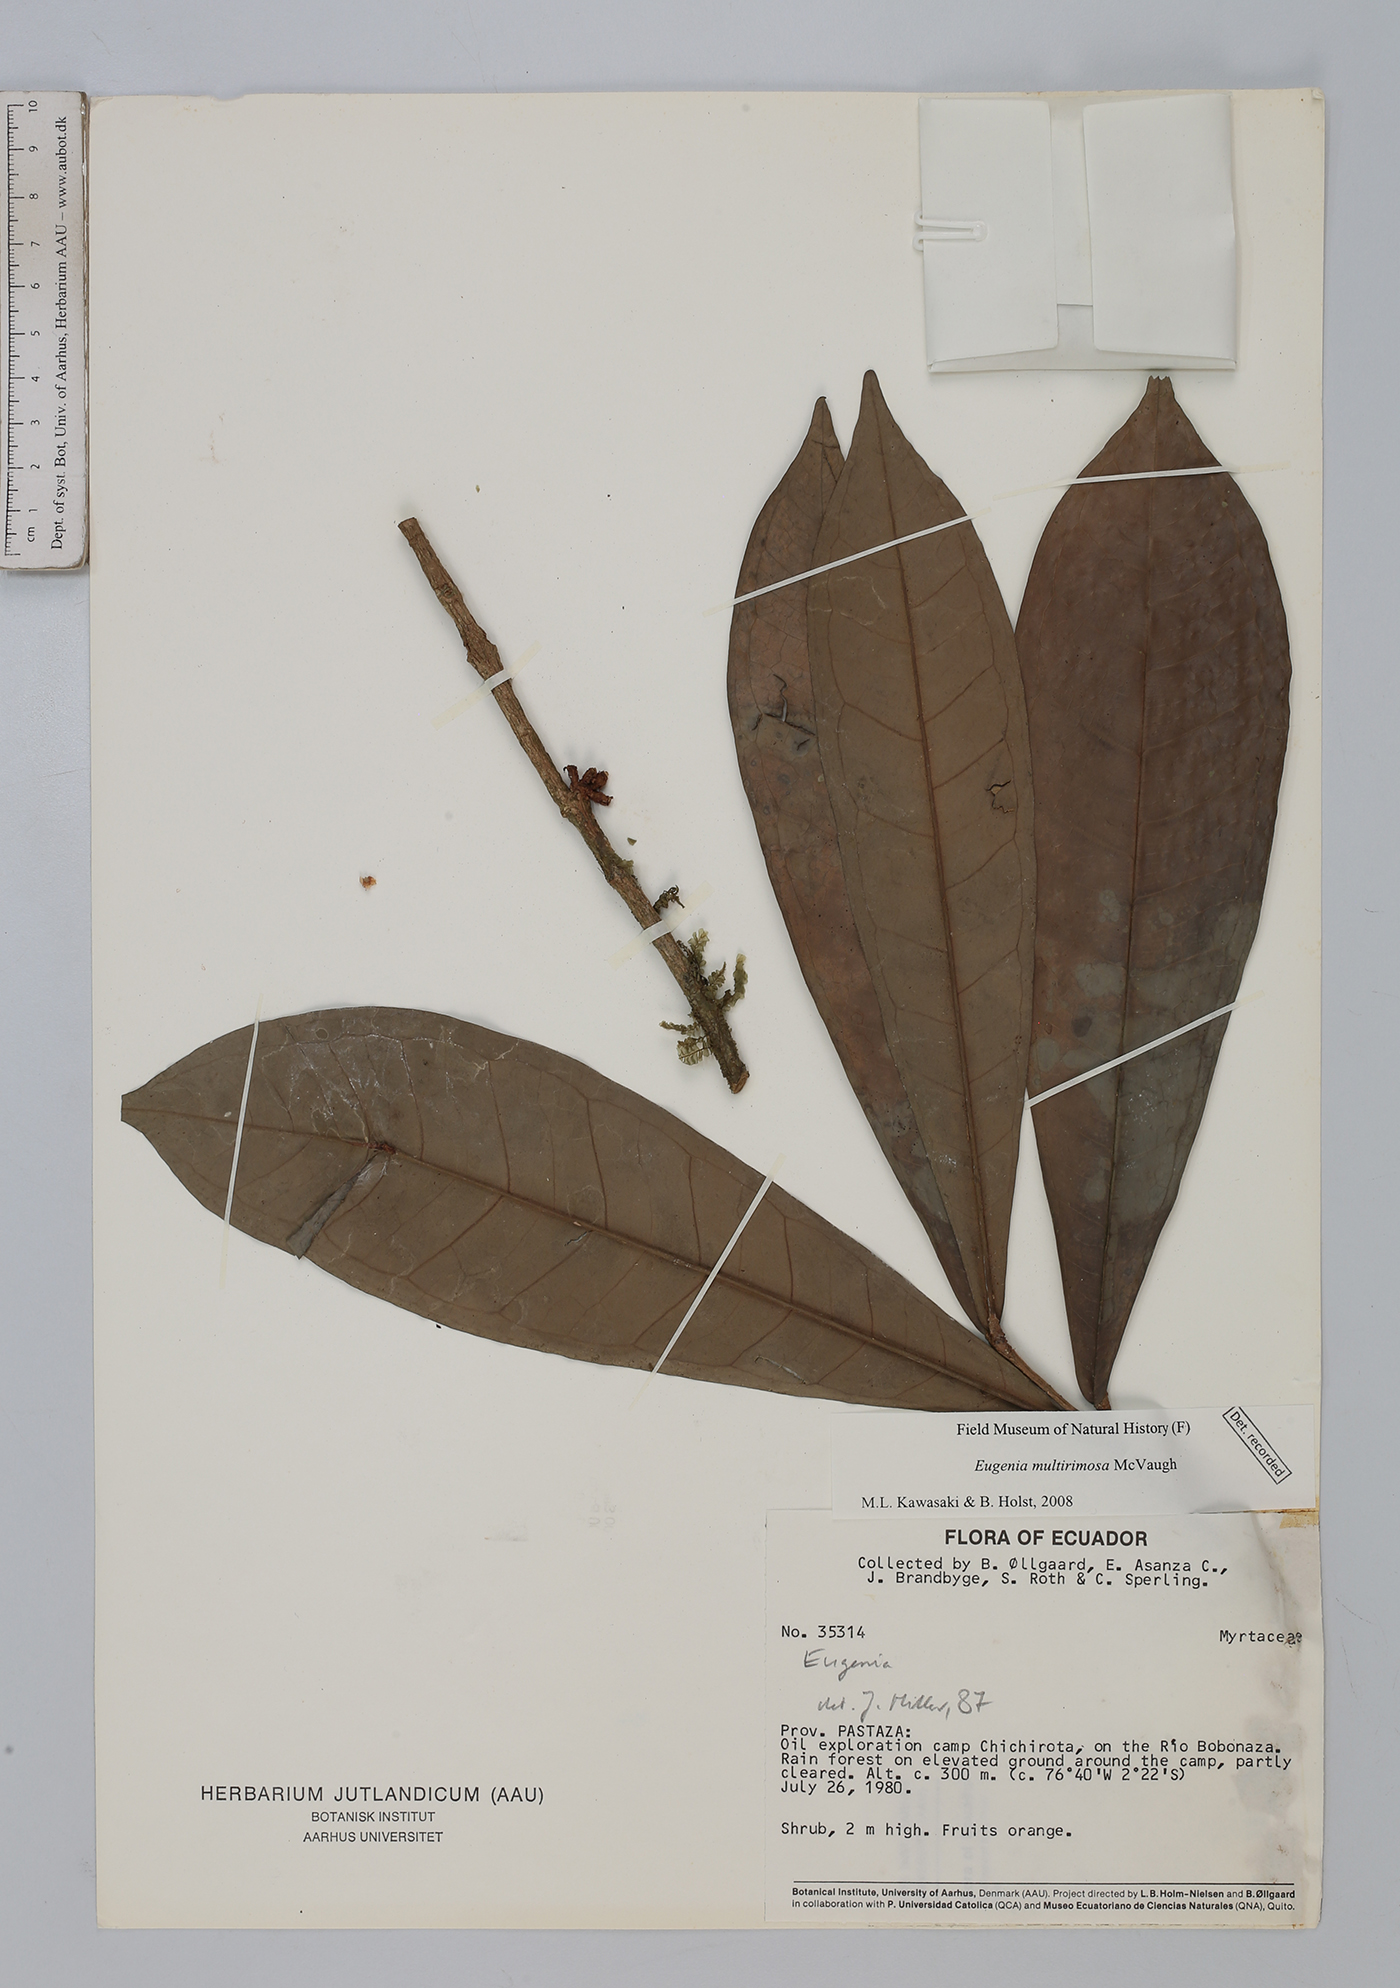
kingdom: Plantae
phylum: Tracheophyta
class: Magnoliopsida
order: Myrtales
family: Myrtaceae
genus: Eugenia
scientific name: Eugenia multirimosa
